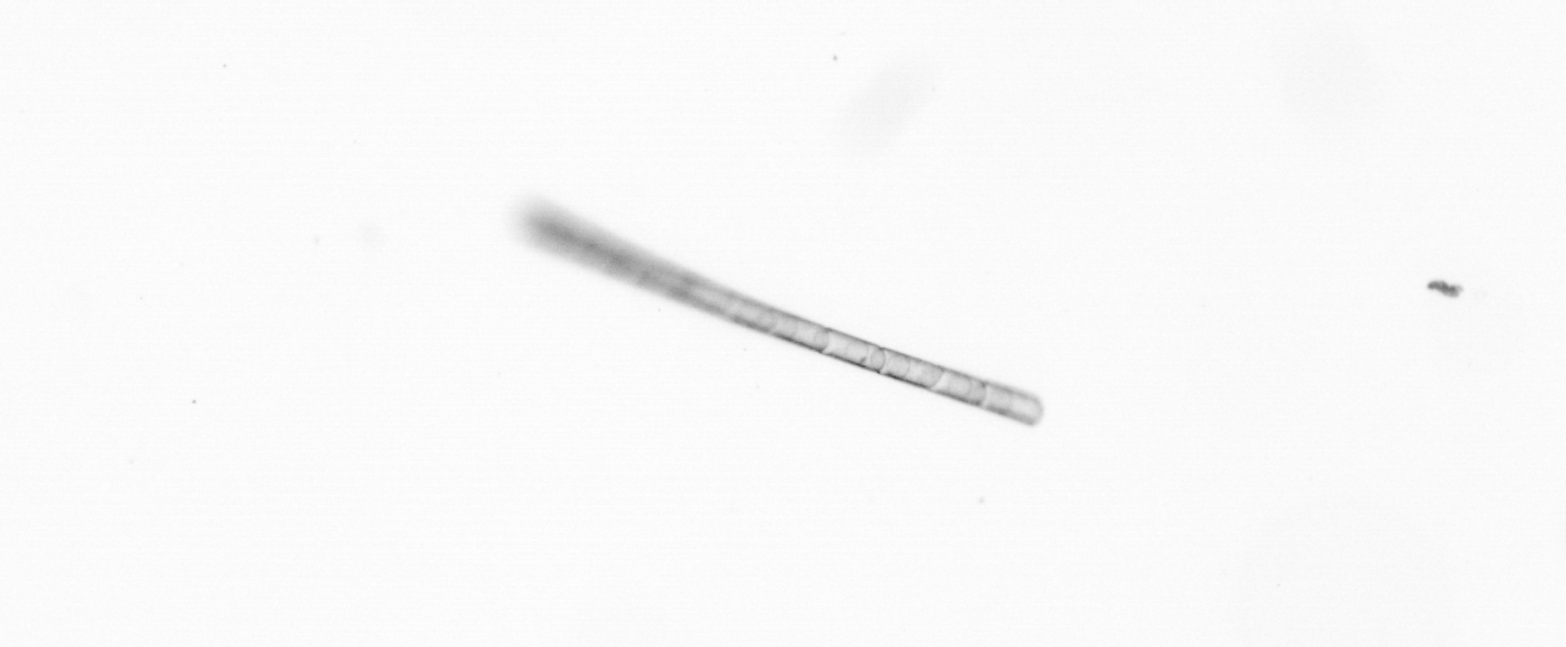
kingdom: Chromista
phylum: Ochrophyta
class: Bacillariophyceae
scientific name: Bacillariophyceae
